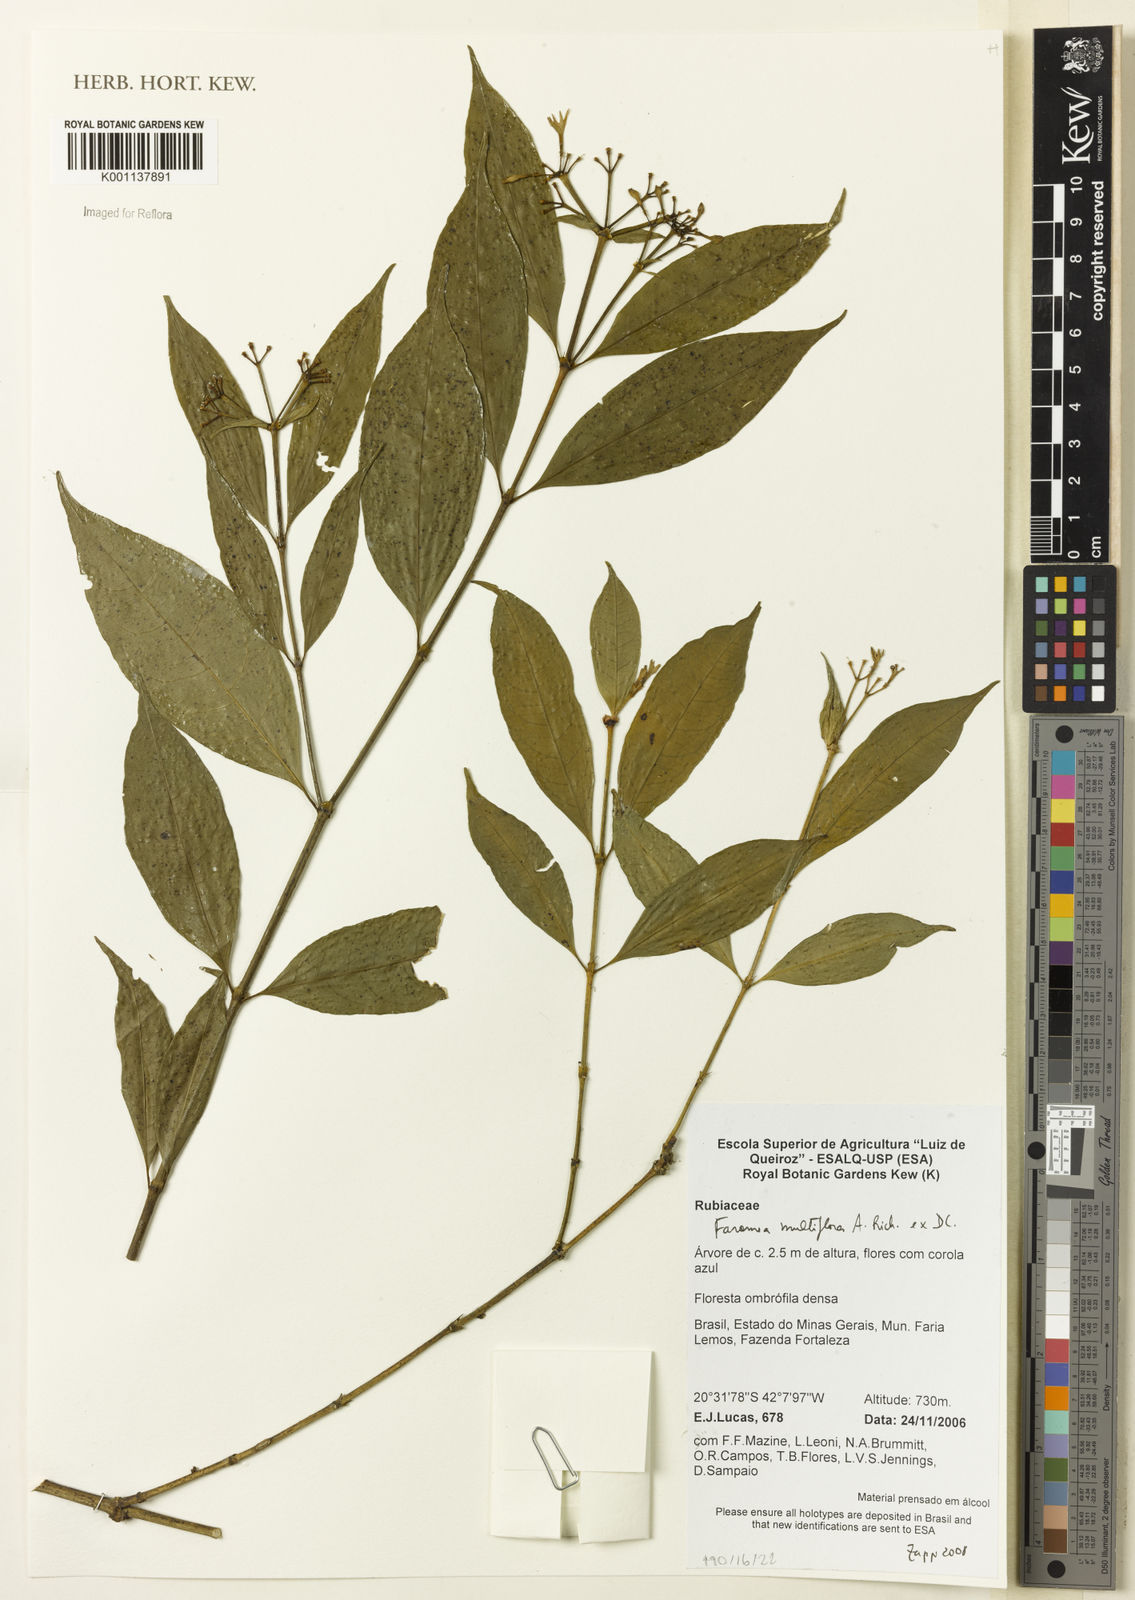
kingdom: Plantae
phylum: Tracheophyta
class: Magnoliopsida
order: Gentianales
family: Rubiaceae
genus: Faramea
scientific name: Faramea multiflora
